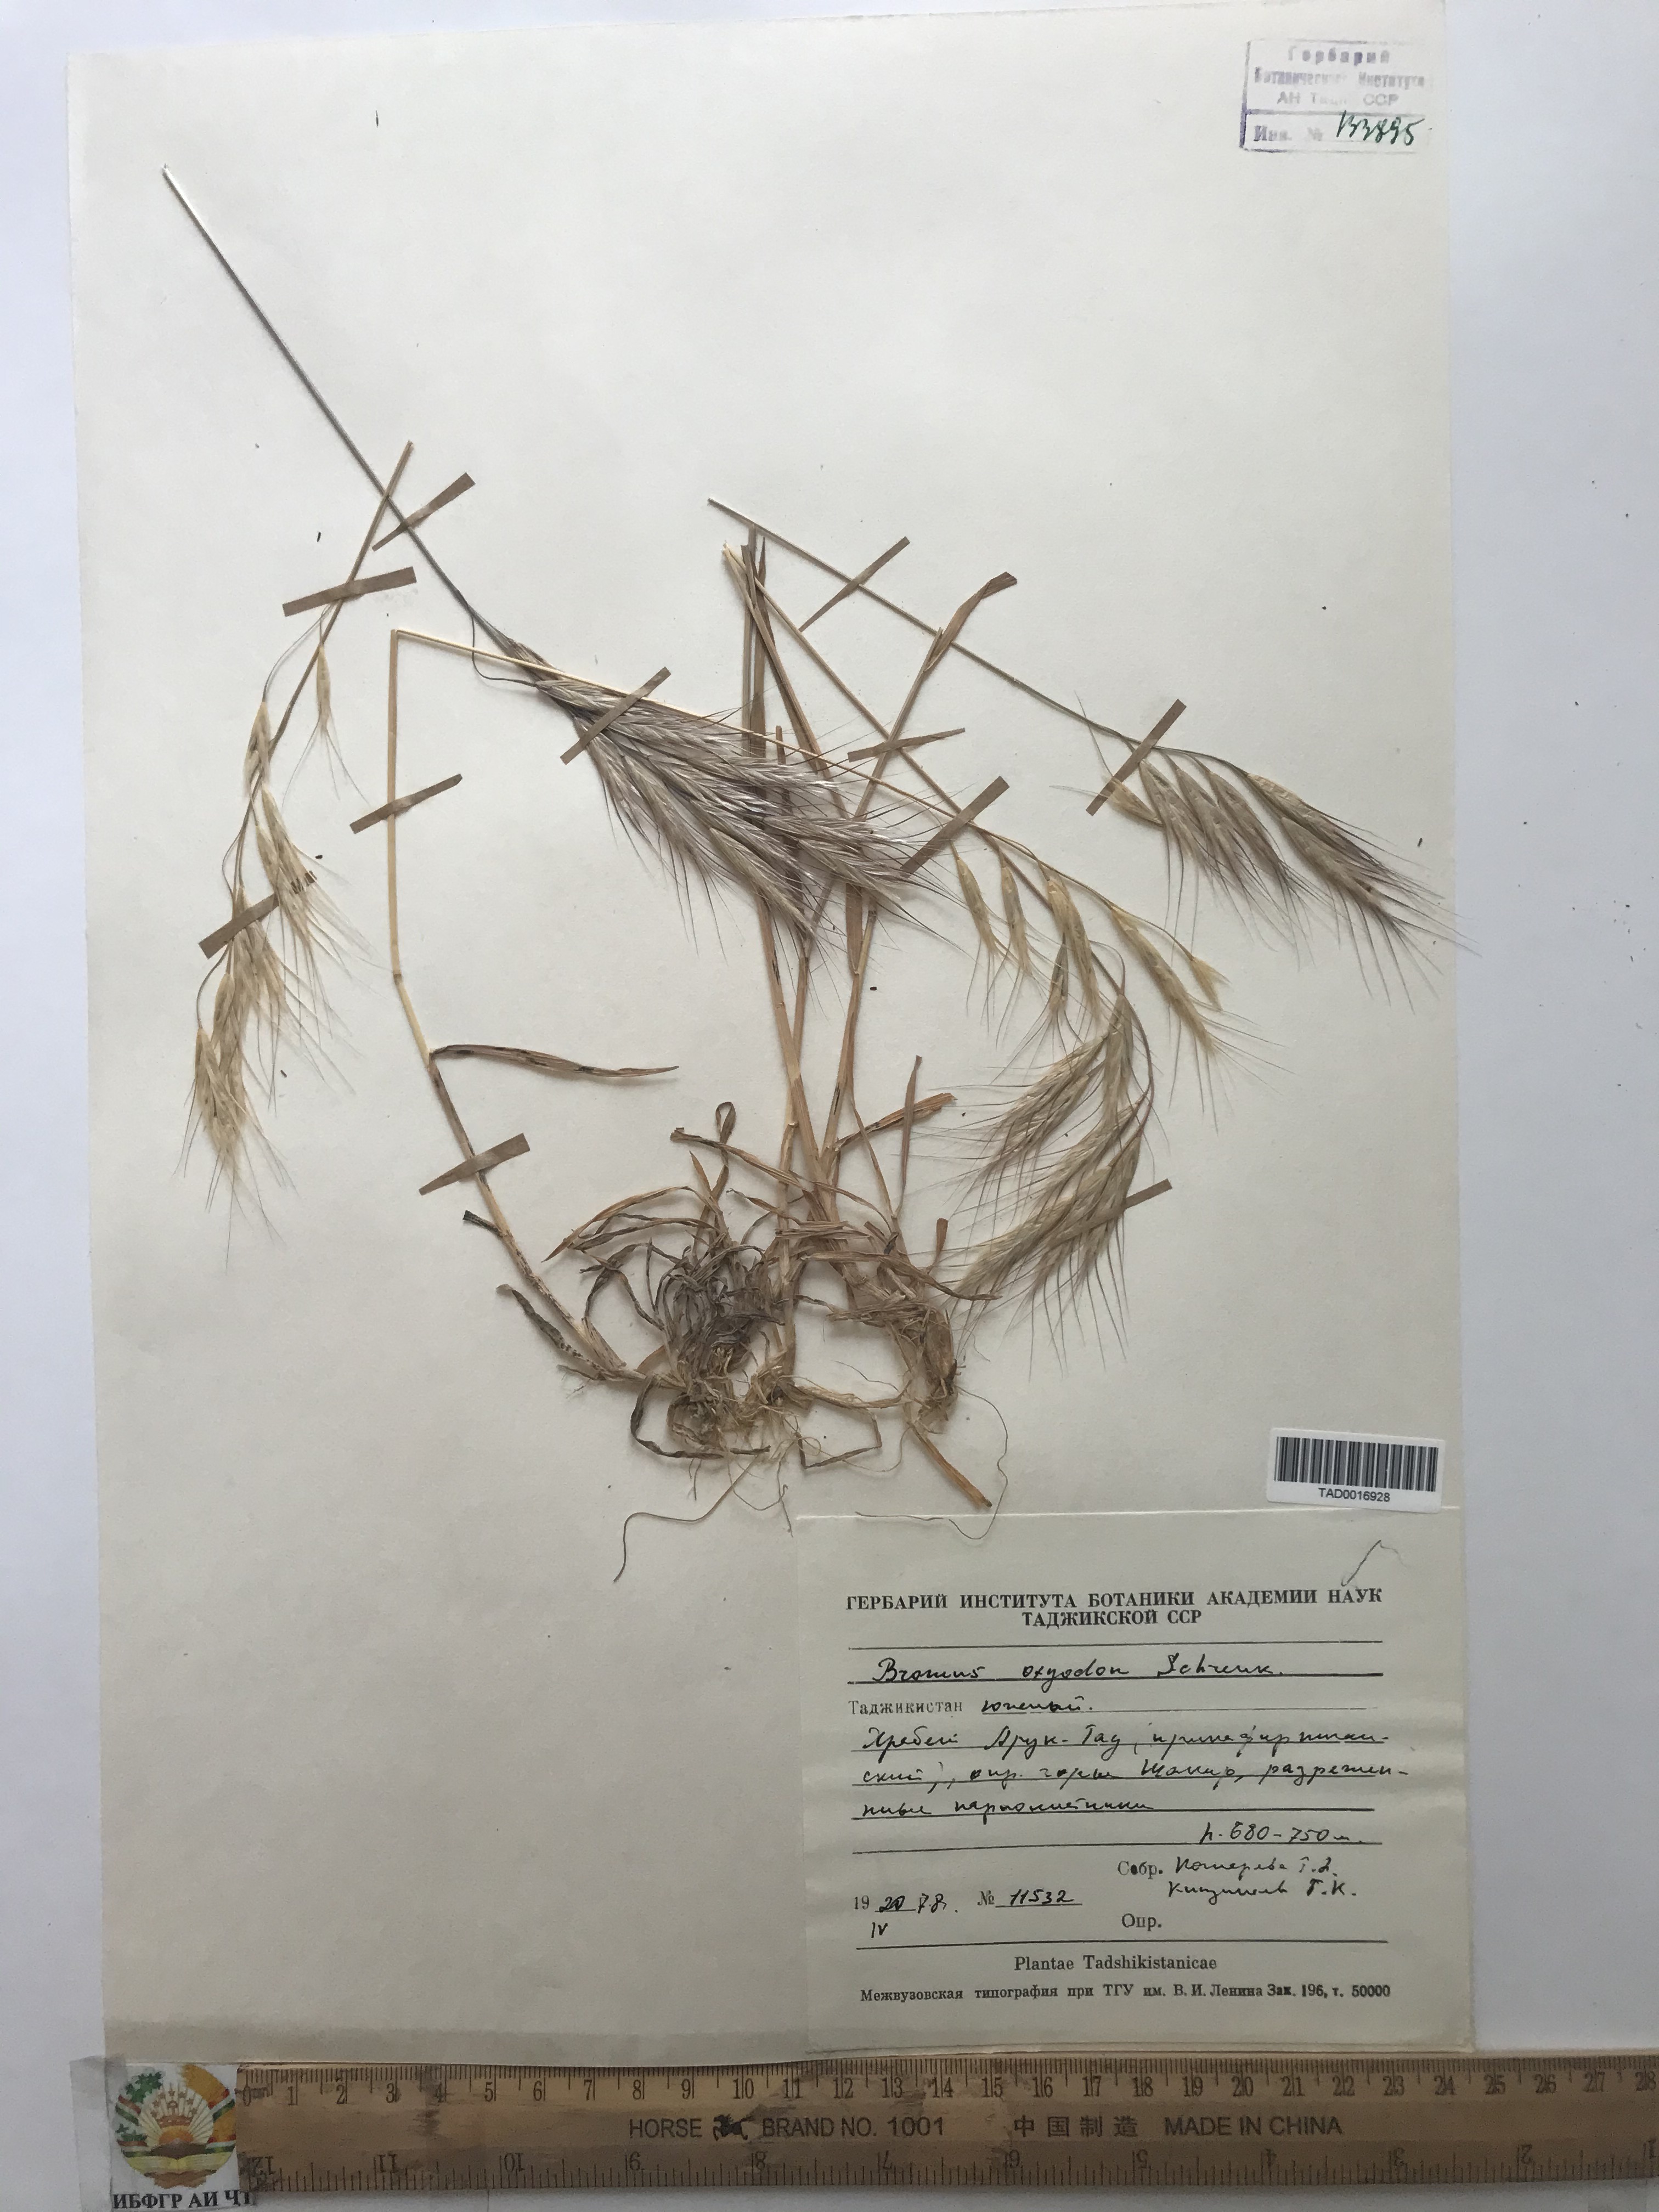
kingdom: Plantae
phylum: Tracheophyta
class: Liliopsida
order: Poales
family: Poaceae
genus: Bromus
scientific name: Bromus oxyodon
